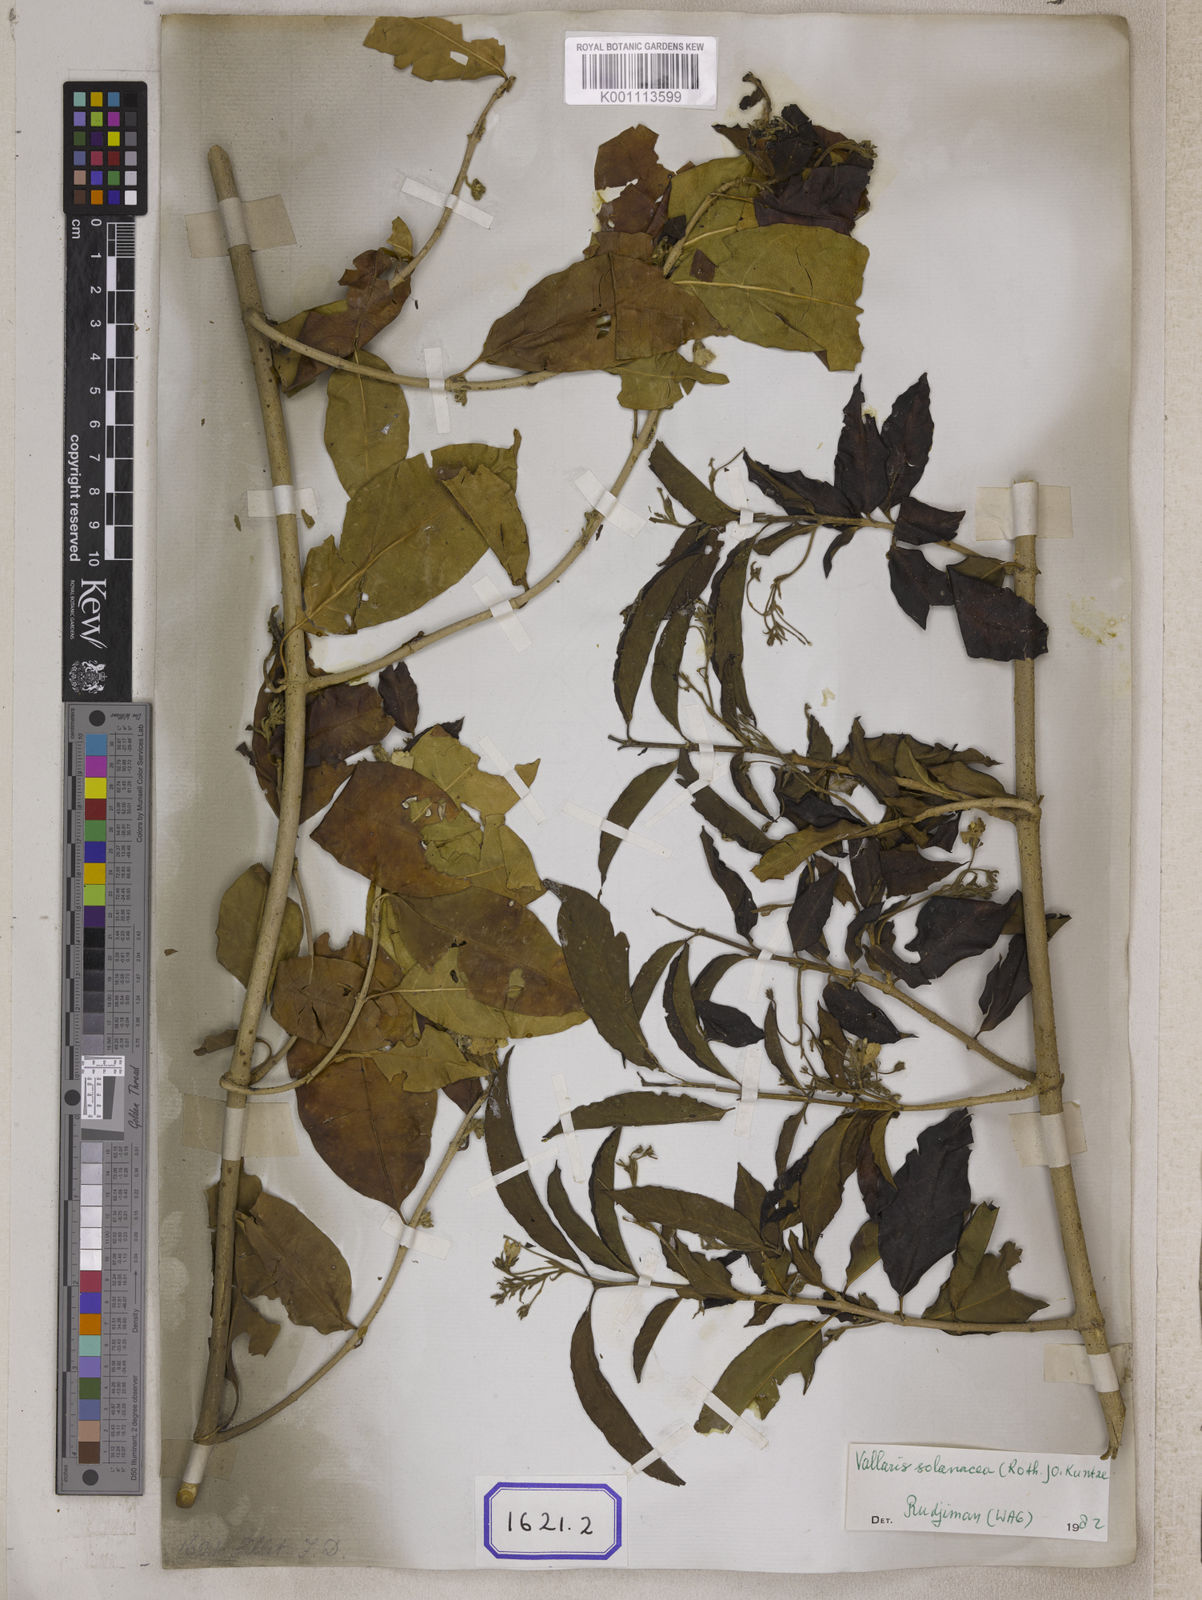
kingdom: Plantae
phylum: Tracheophyta
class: Magnoliopsida
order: Gentianales
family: Apocynaceae
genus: Vallaris
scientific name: Vallaris glabra
